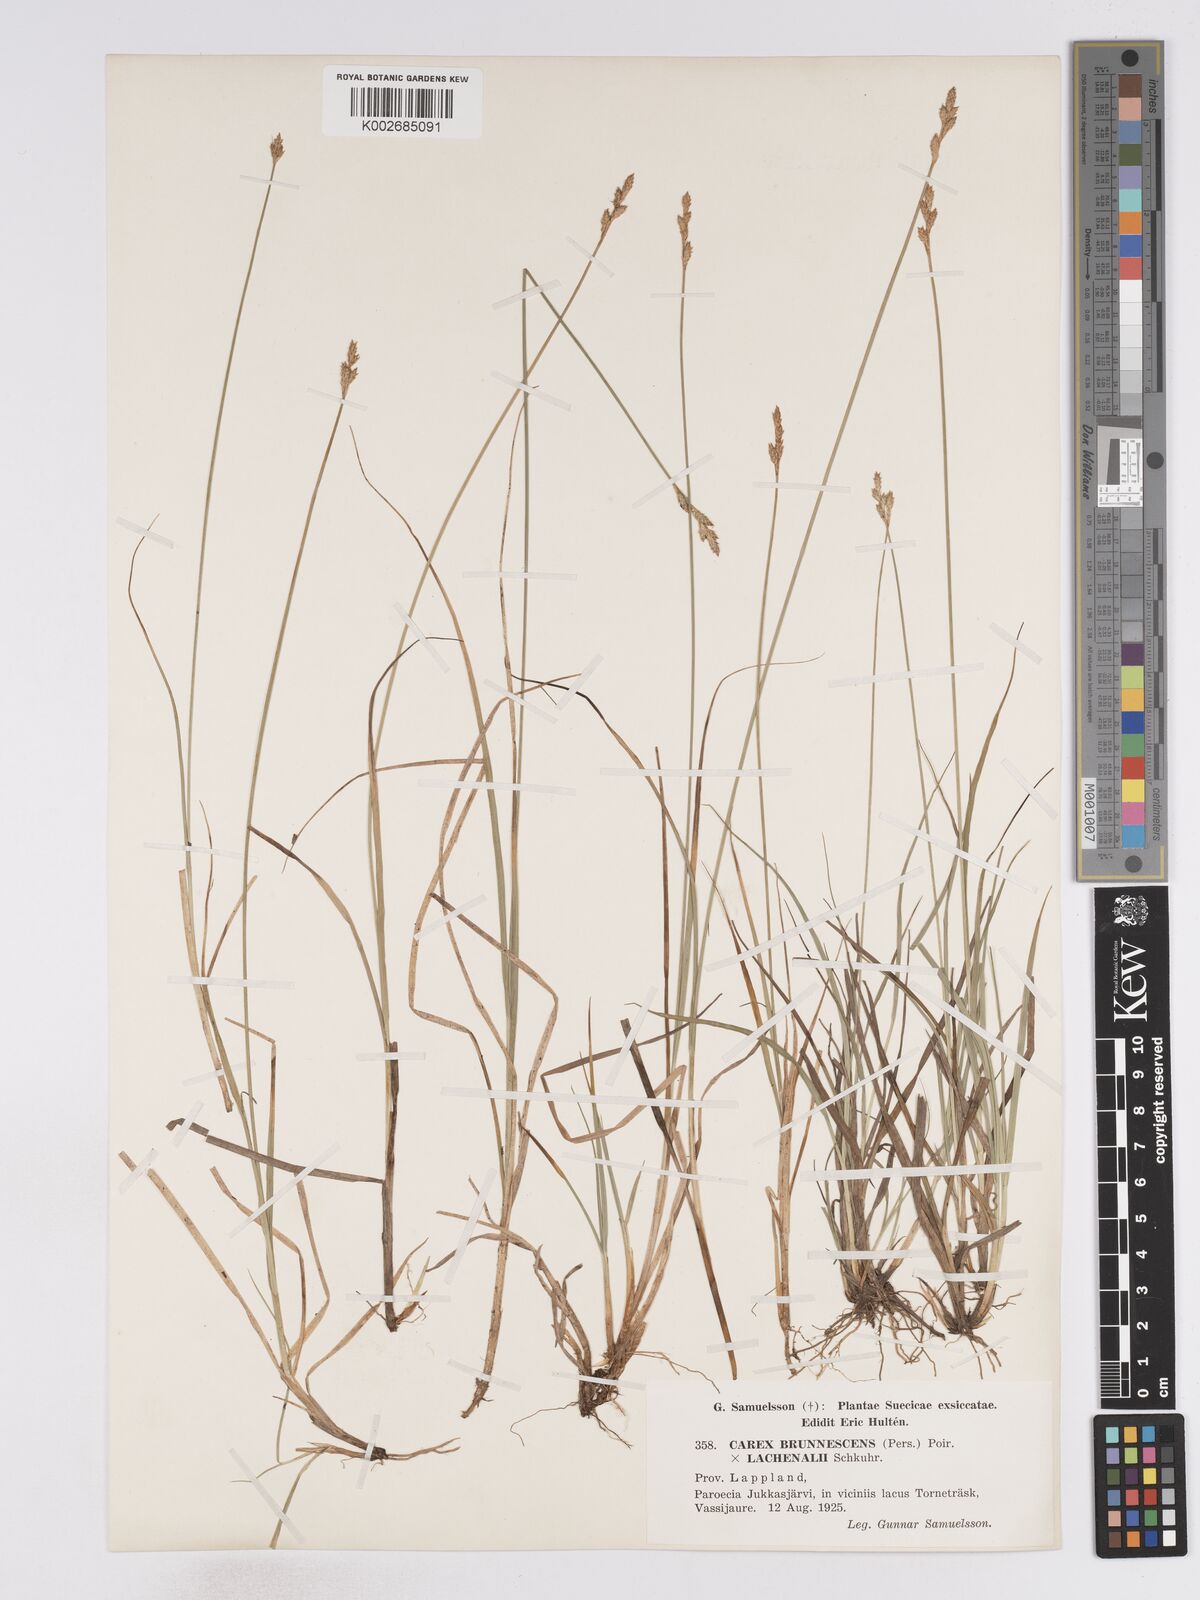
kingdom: Plantae
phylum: Tracheophyta
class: Liliopsida
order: Poales
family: Cyperaceae
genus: Carex
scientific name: Carex brunnescens
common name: Brown sedge
